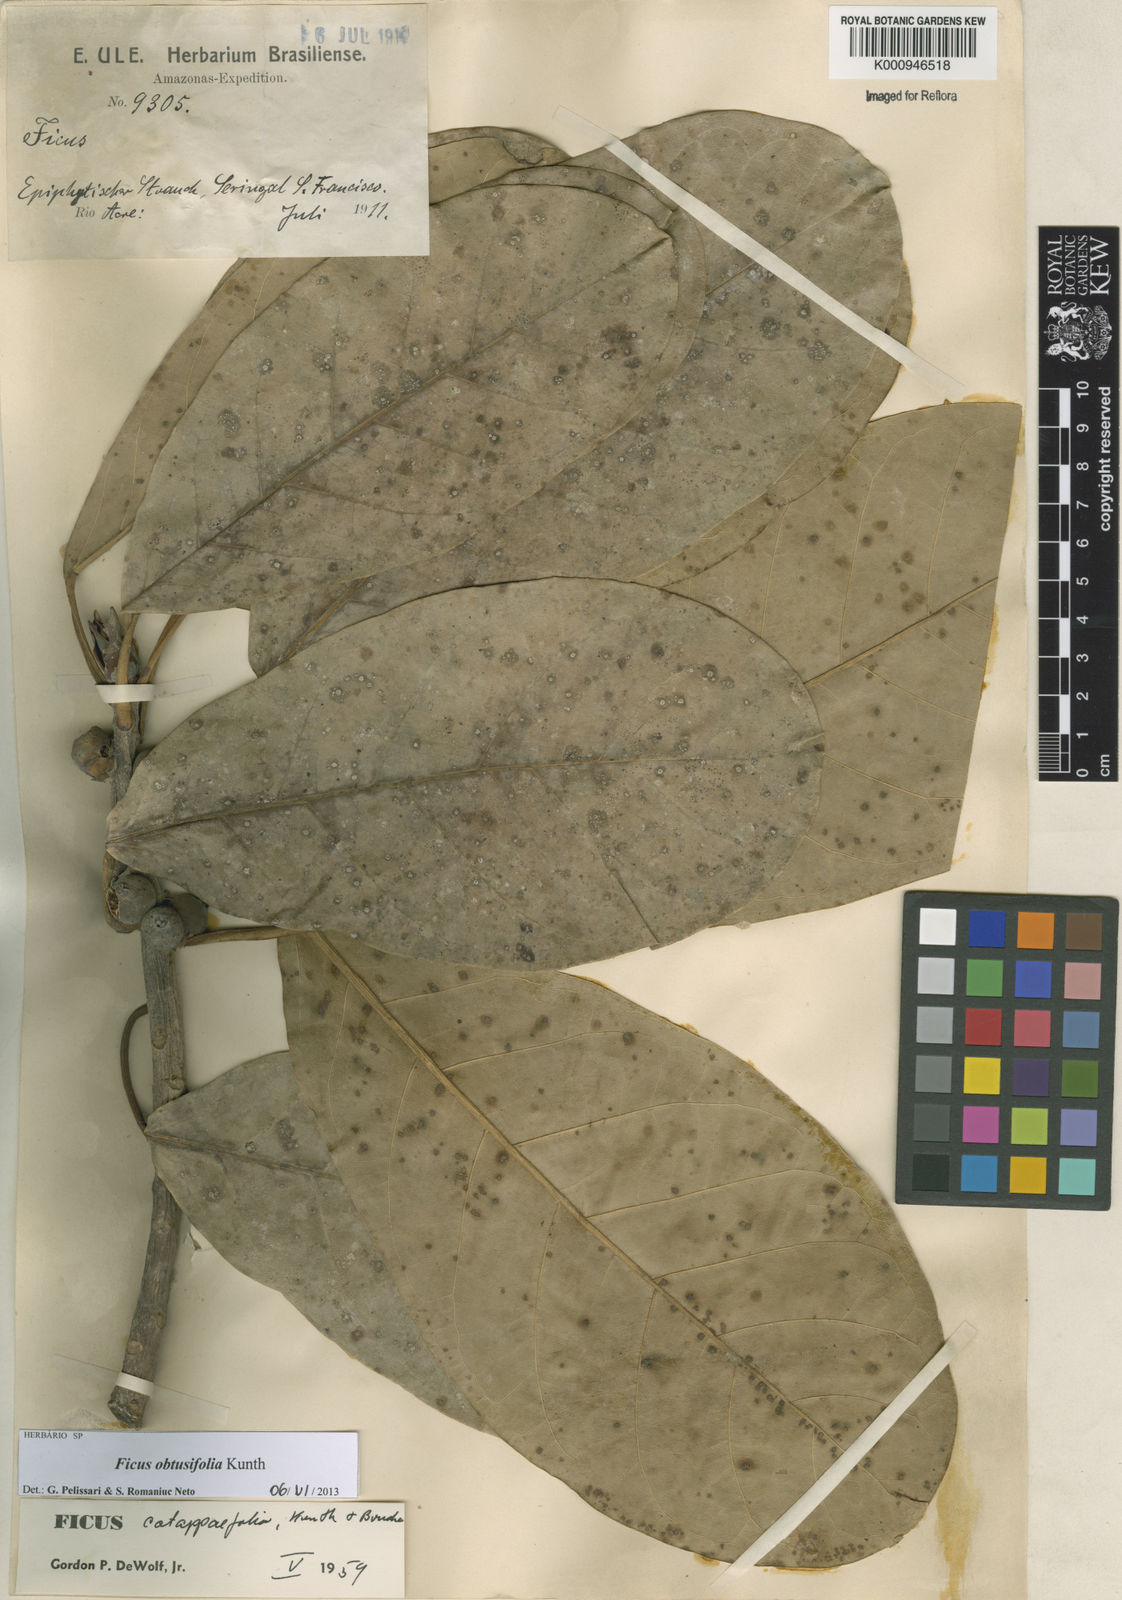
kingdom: Plantae
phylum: Tracheophyta
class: Magnoliopsida
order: Rosales
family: Moraceae
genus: Ficus
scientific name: Ficus obtusifolia
